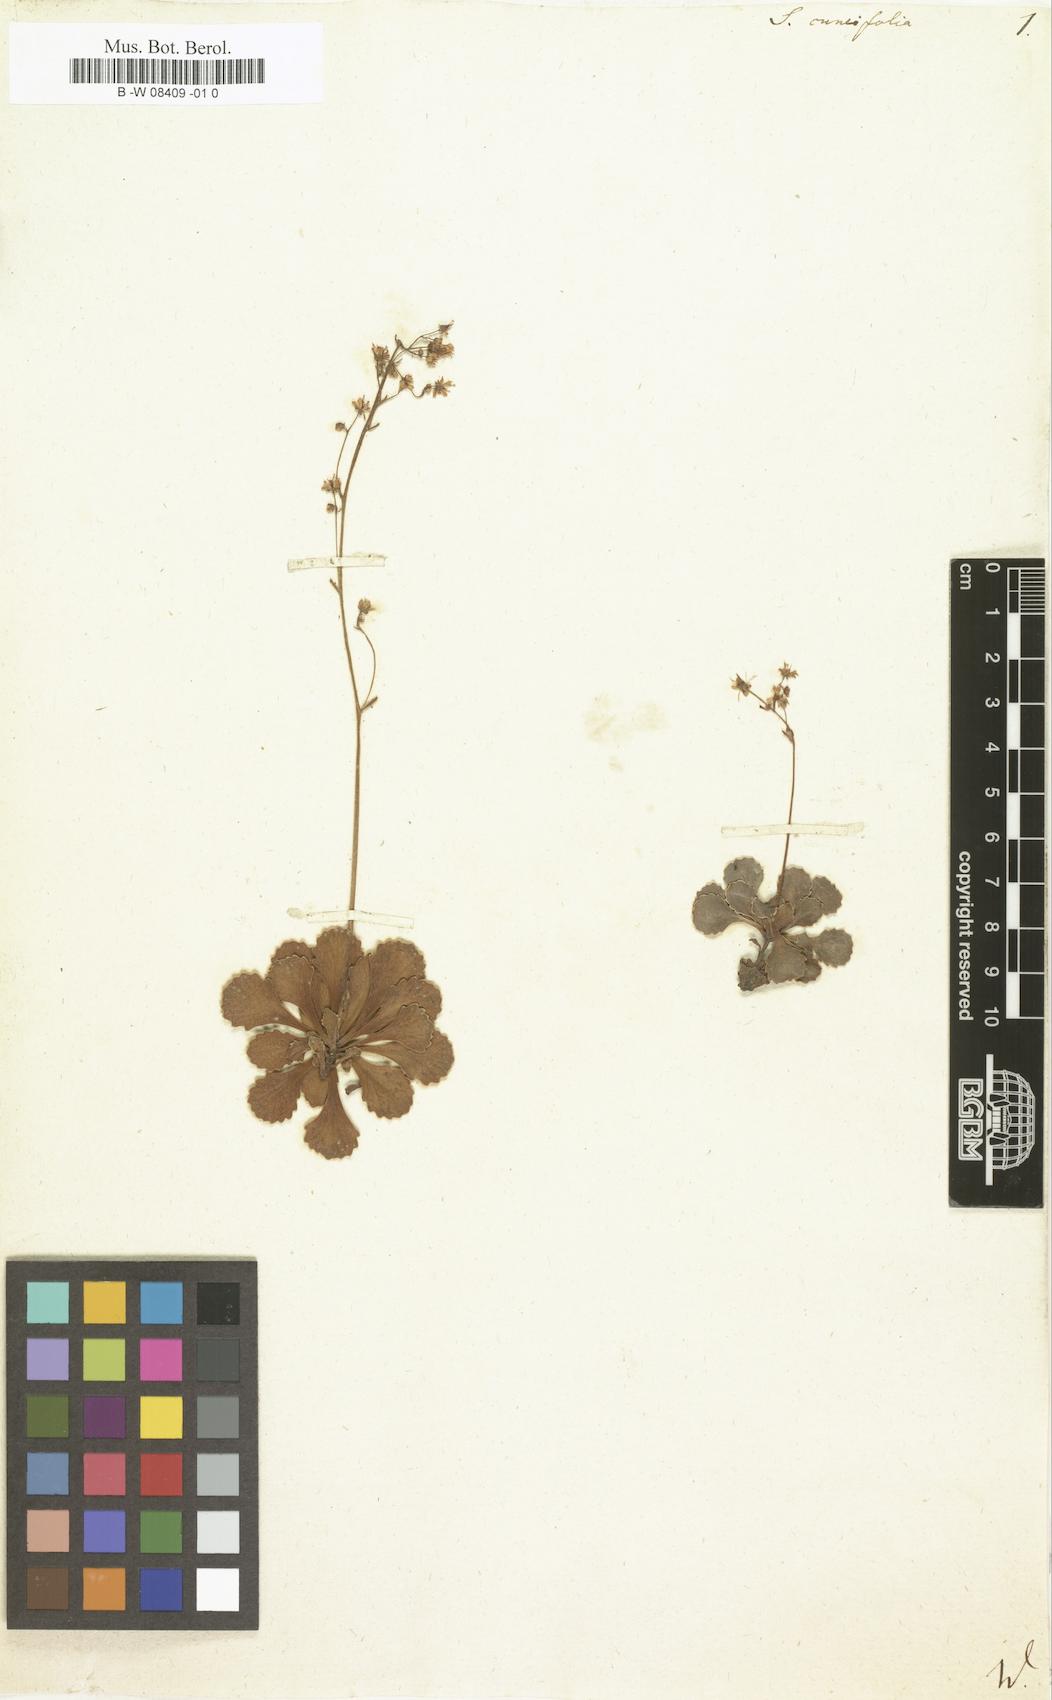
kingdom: Plantae
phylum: Tracheophyta
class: Magnoliopsida
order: Saxifragales
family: Saxifragaceae
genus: Saxifraga
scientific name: Saxifraga cuneifolia
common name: Lesser londonpride
